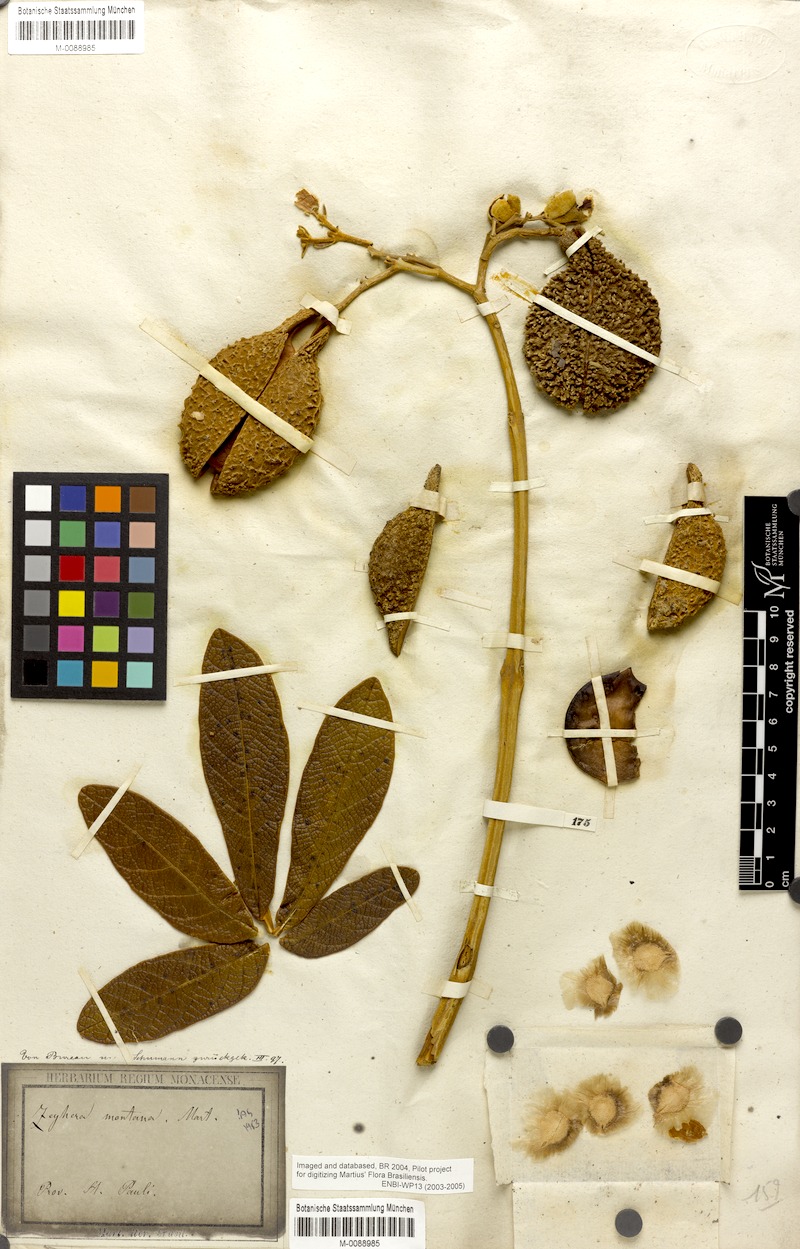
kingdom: Plantae
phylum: Tracheophyta
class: Magnoliopsida
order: Lamiales
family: Bignoniaceae
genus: Zeyheria
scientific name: Zeyheria montana
